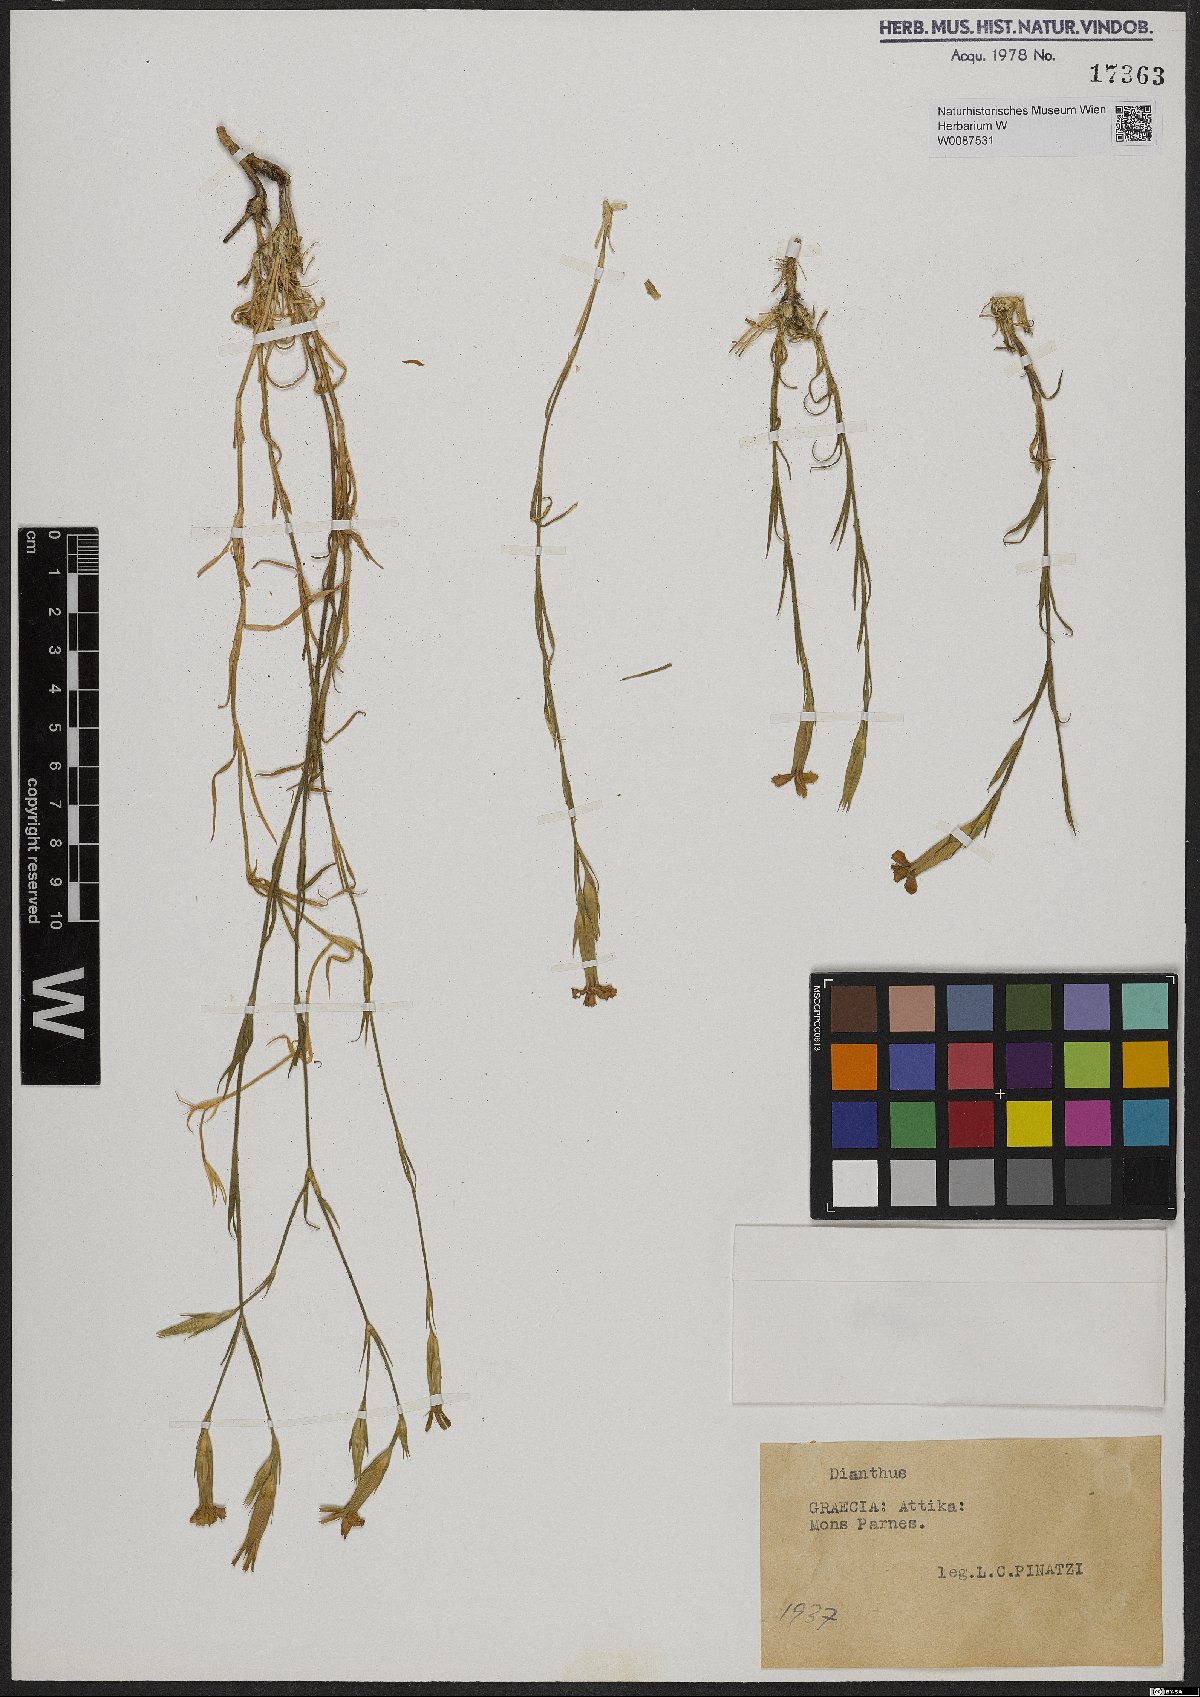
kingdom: Plantae
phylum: Tracheophyta
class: Magnoliopsida
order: Caryophyllales
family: Caryophyllaceae
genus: Dianthus
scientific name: Dianthus
